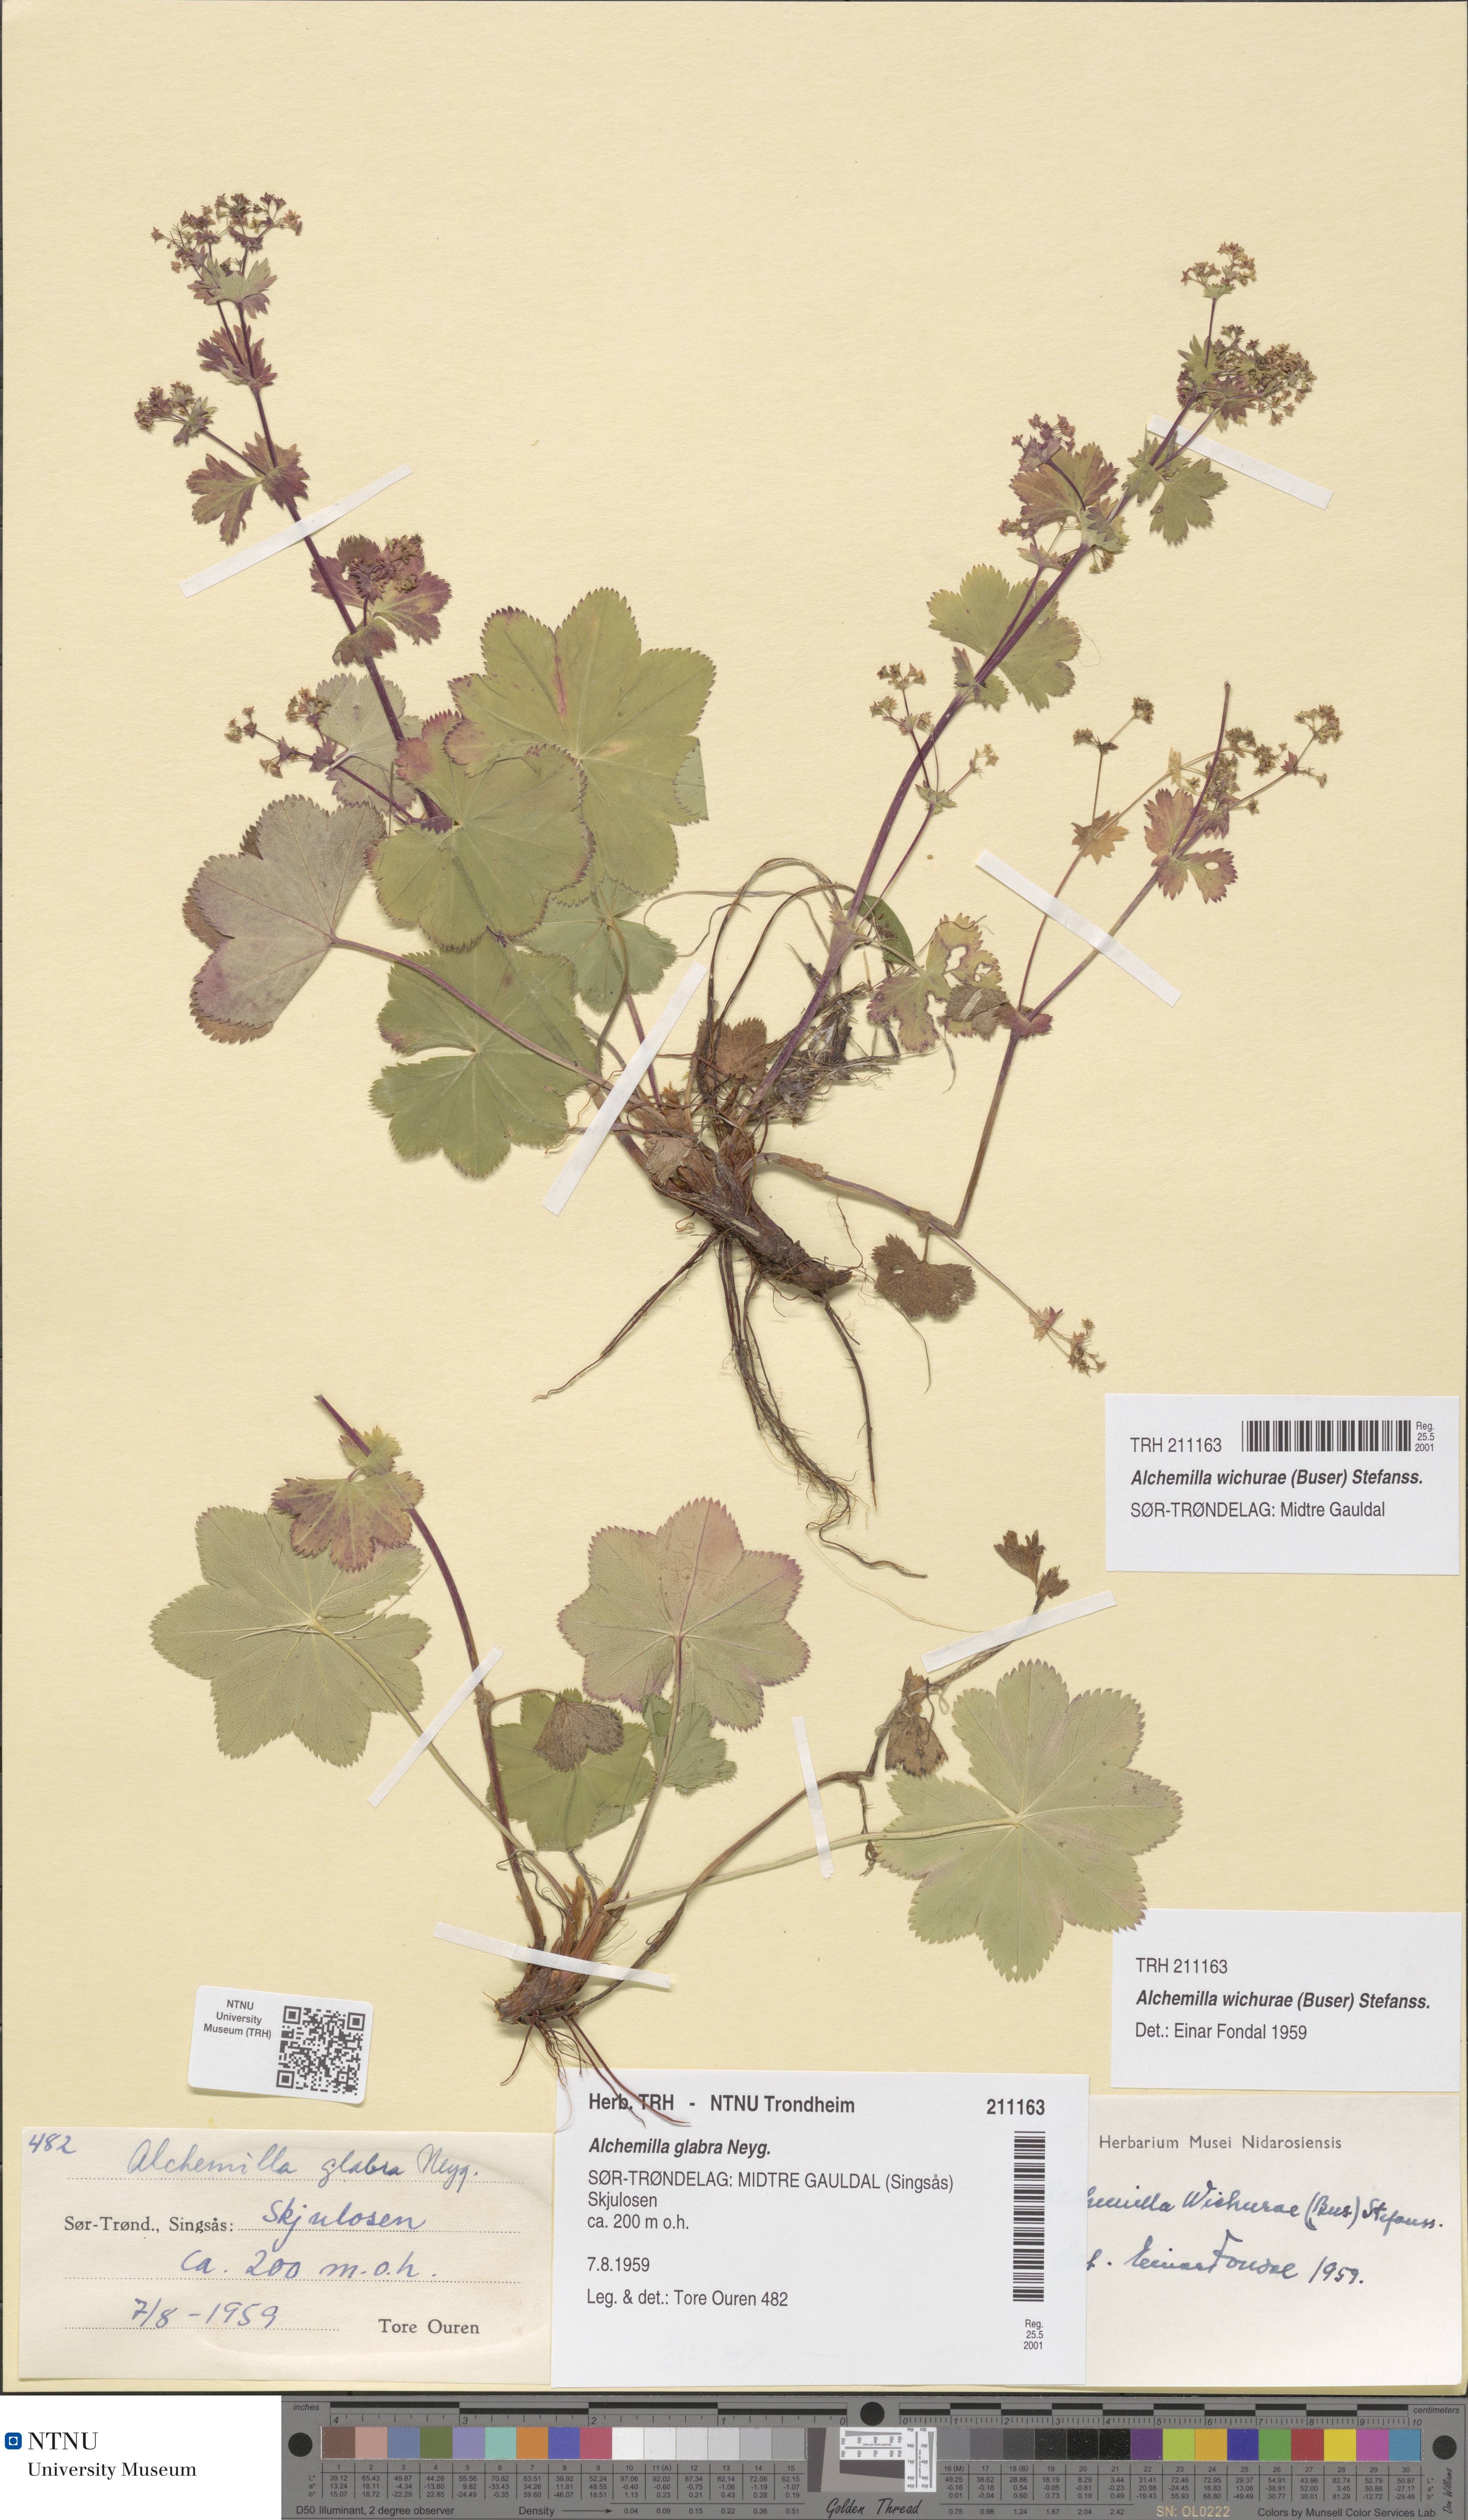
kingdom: Plantae
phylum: Tracheophyta
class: Magnoliopsida
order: Rosales
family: Rosaceae
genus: Alchemilla
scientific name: Alchemilla wichurae
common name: Rock lady's mantle
